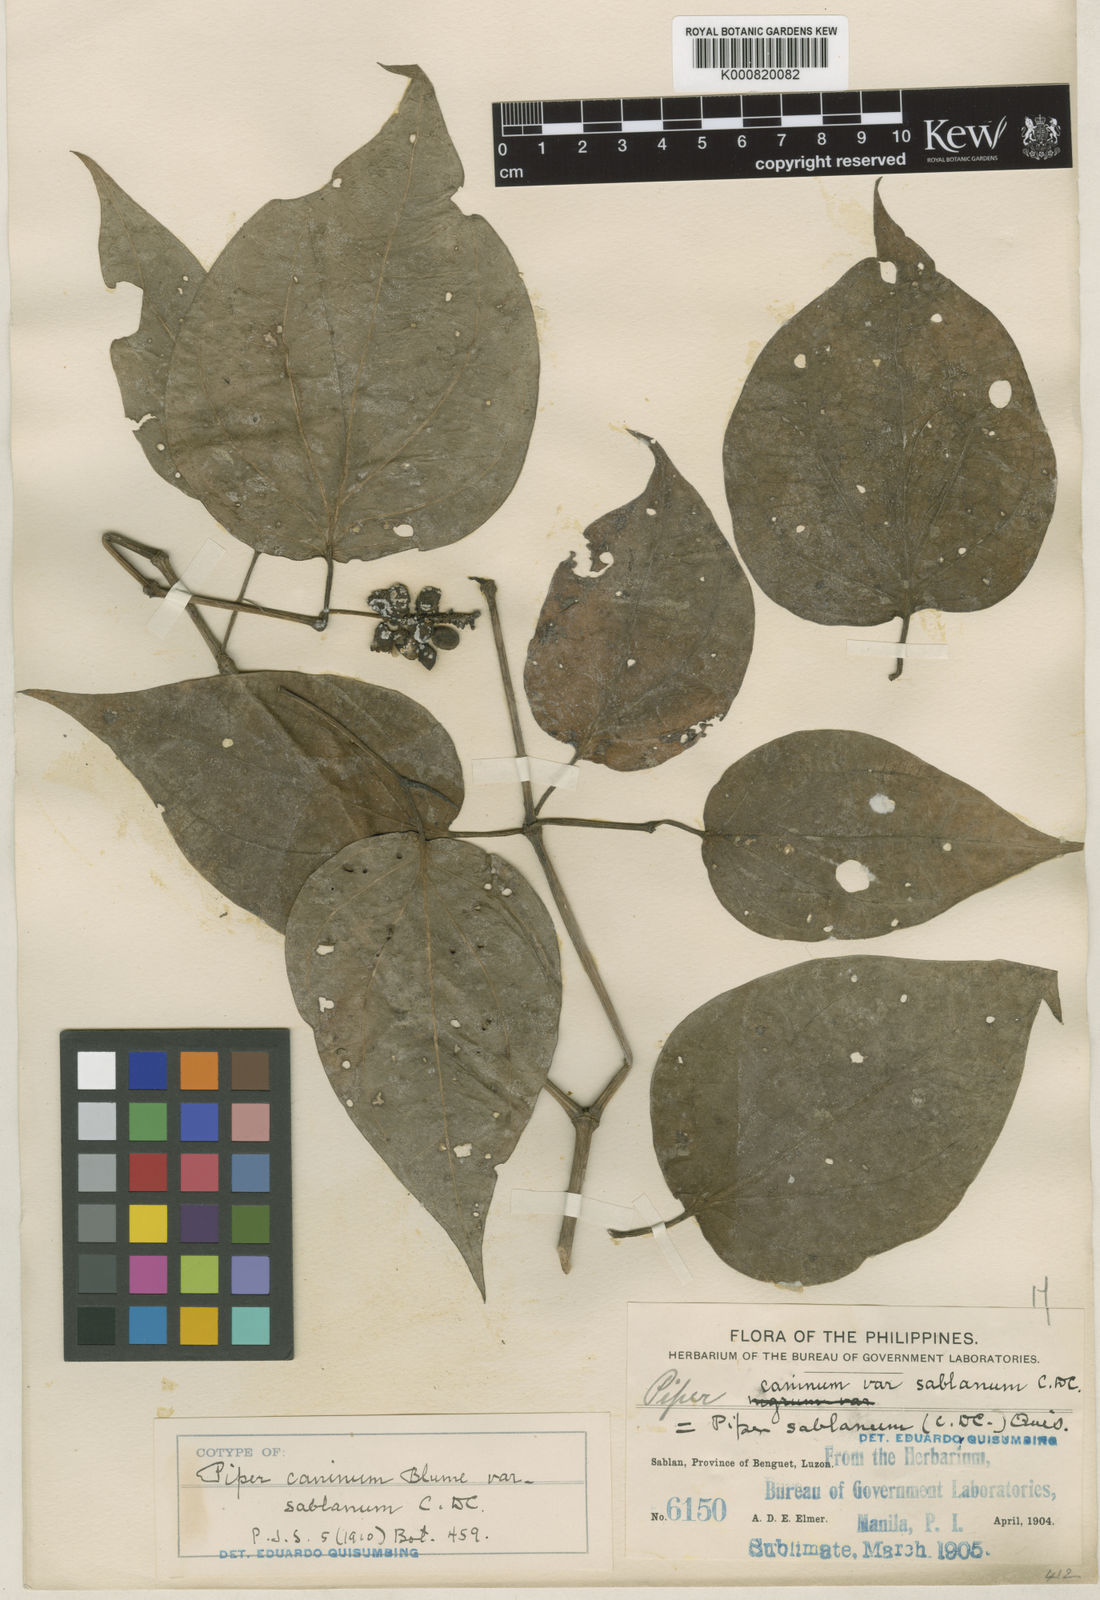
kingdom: Plantae
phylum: Tracheophyta
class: Magnoliopsida
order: Piperales
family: Piperaceae
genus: Piper
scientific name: Piper lanatum
